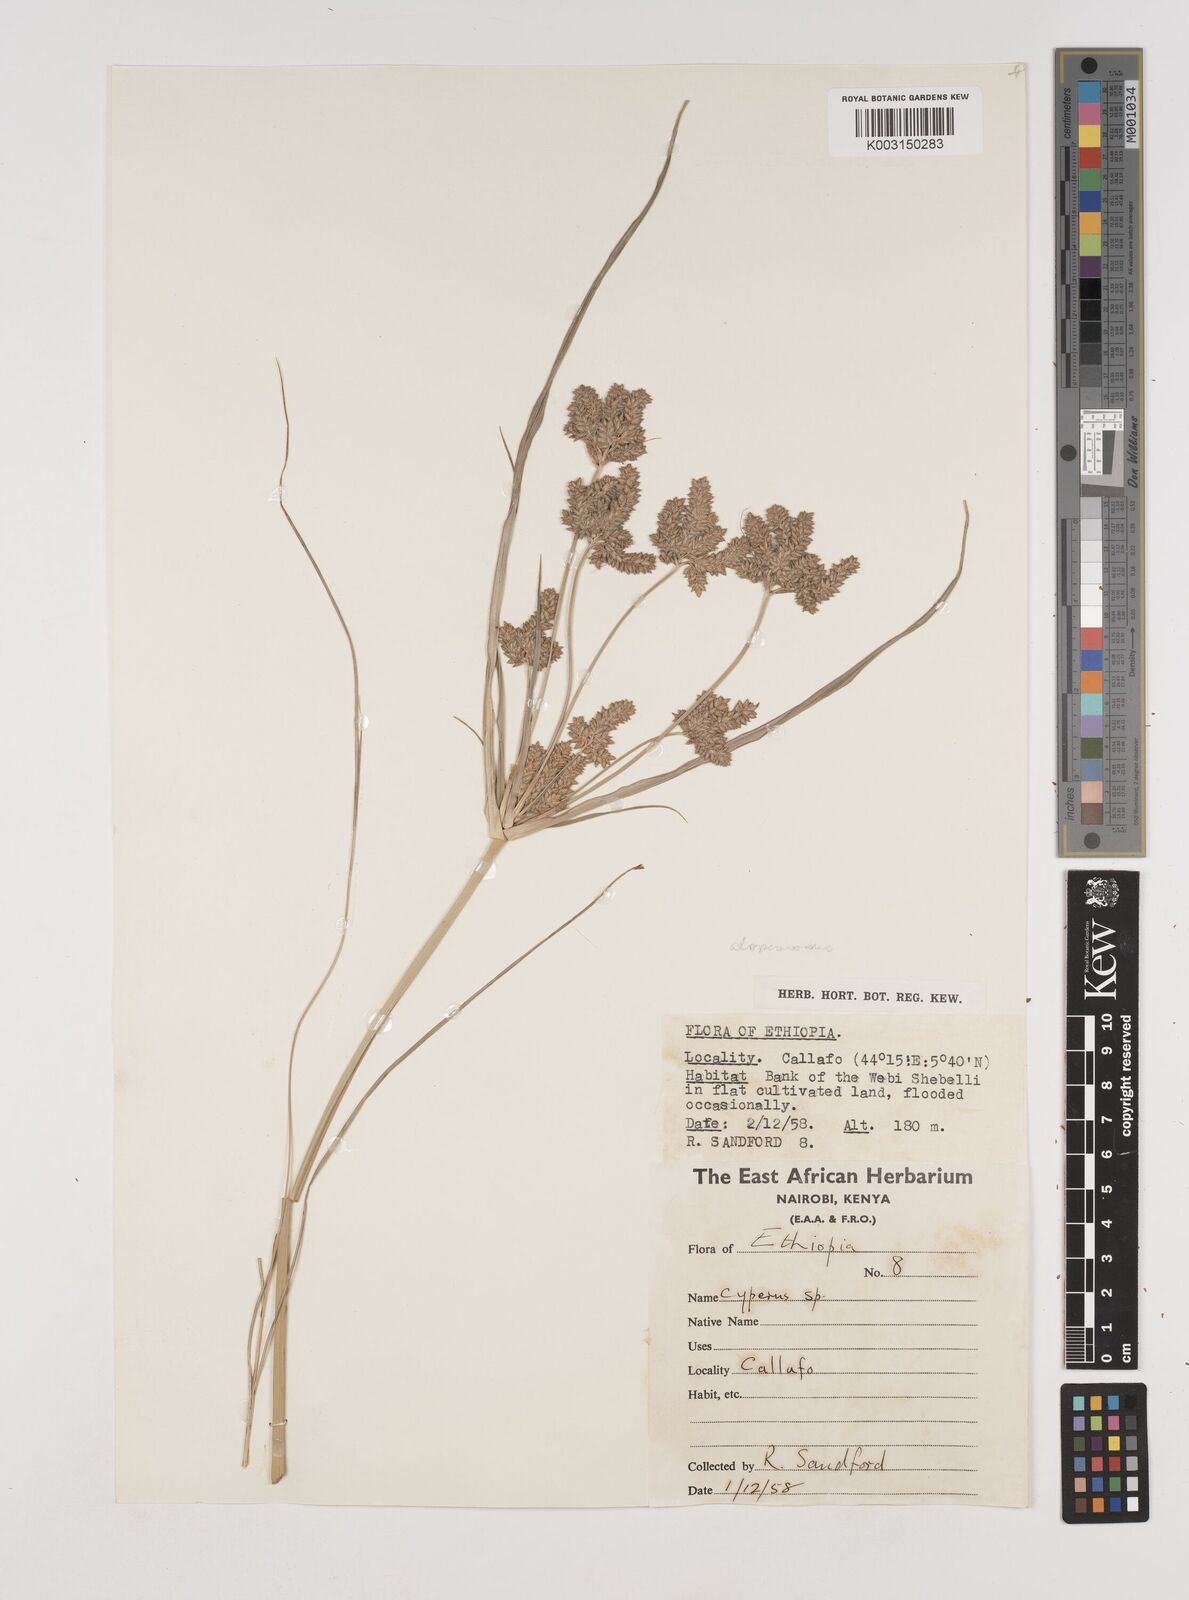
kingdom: Plantae
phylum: Tracheophyta
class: Liliopsida
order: Poales
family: Cyperaceae
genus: Cyperus
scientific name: Cyperus alopecuroides
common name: Foxtail flatsedge
